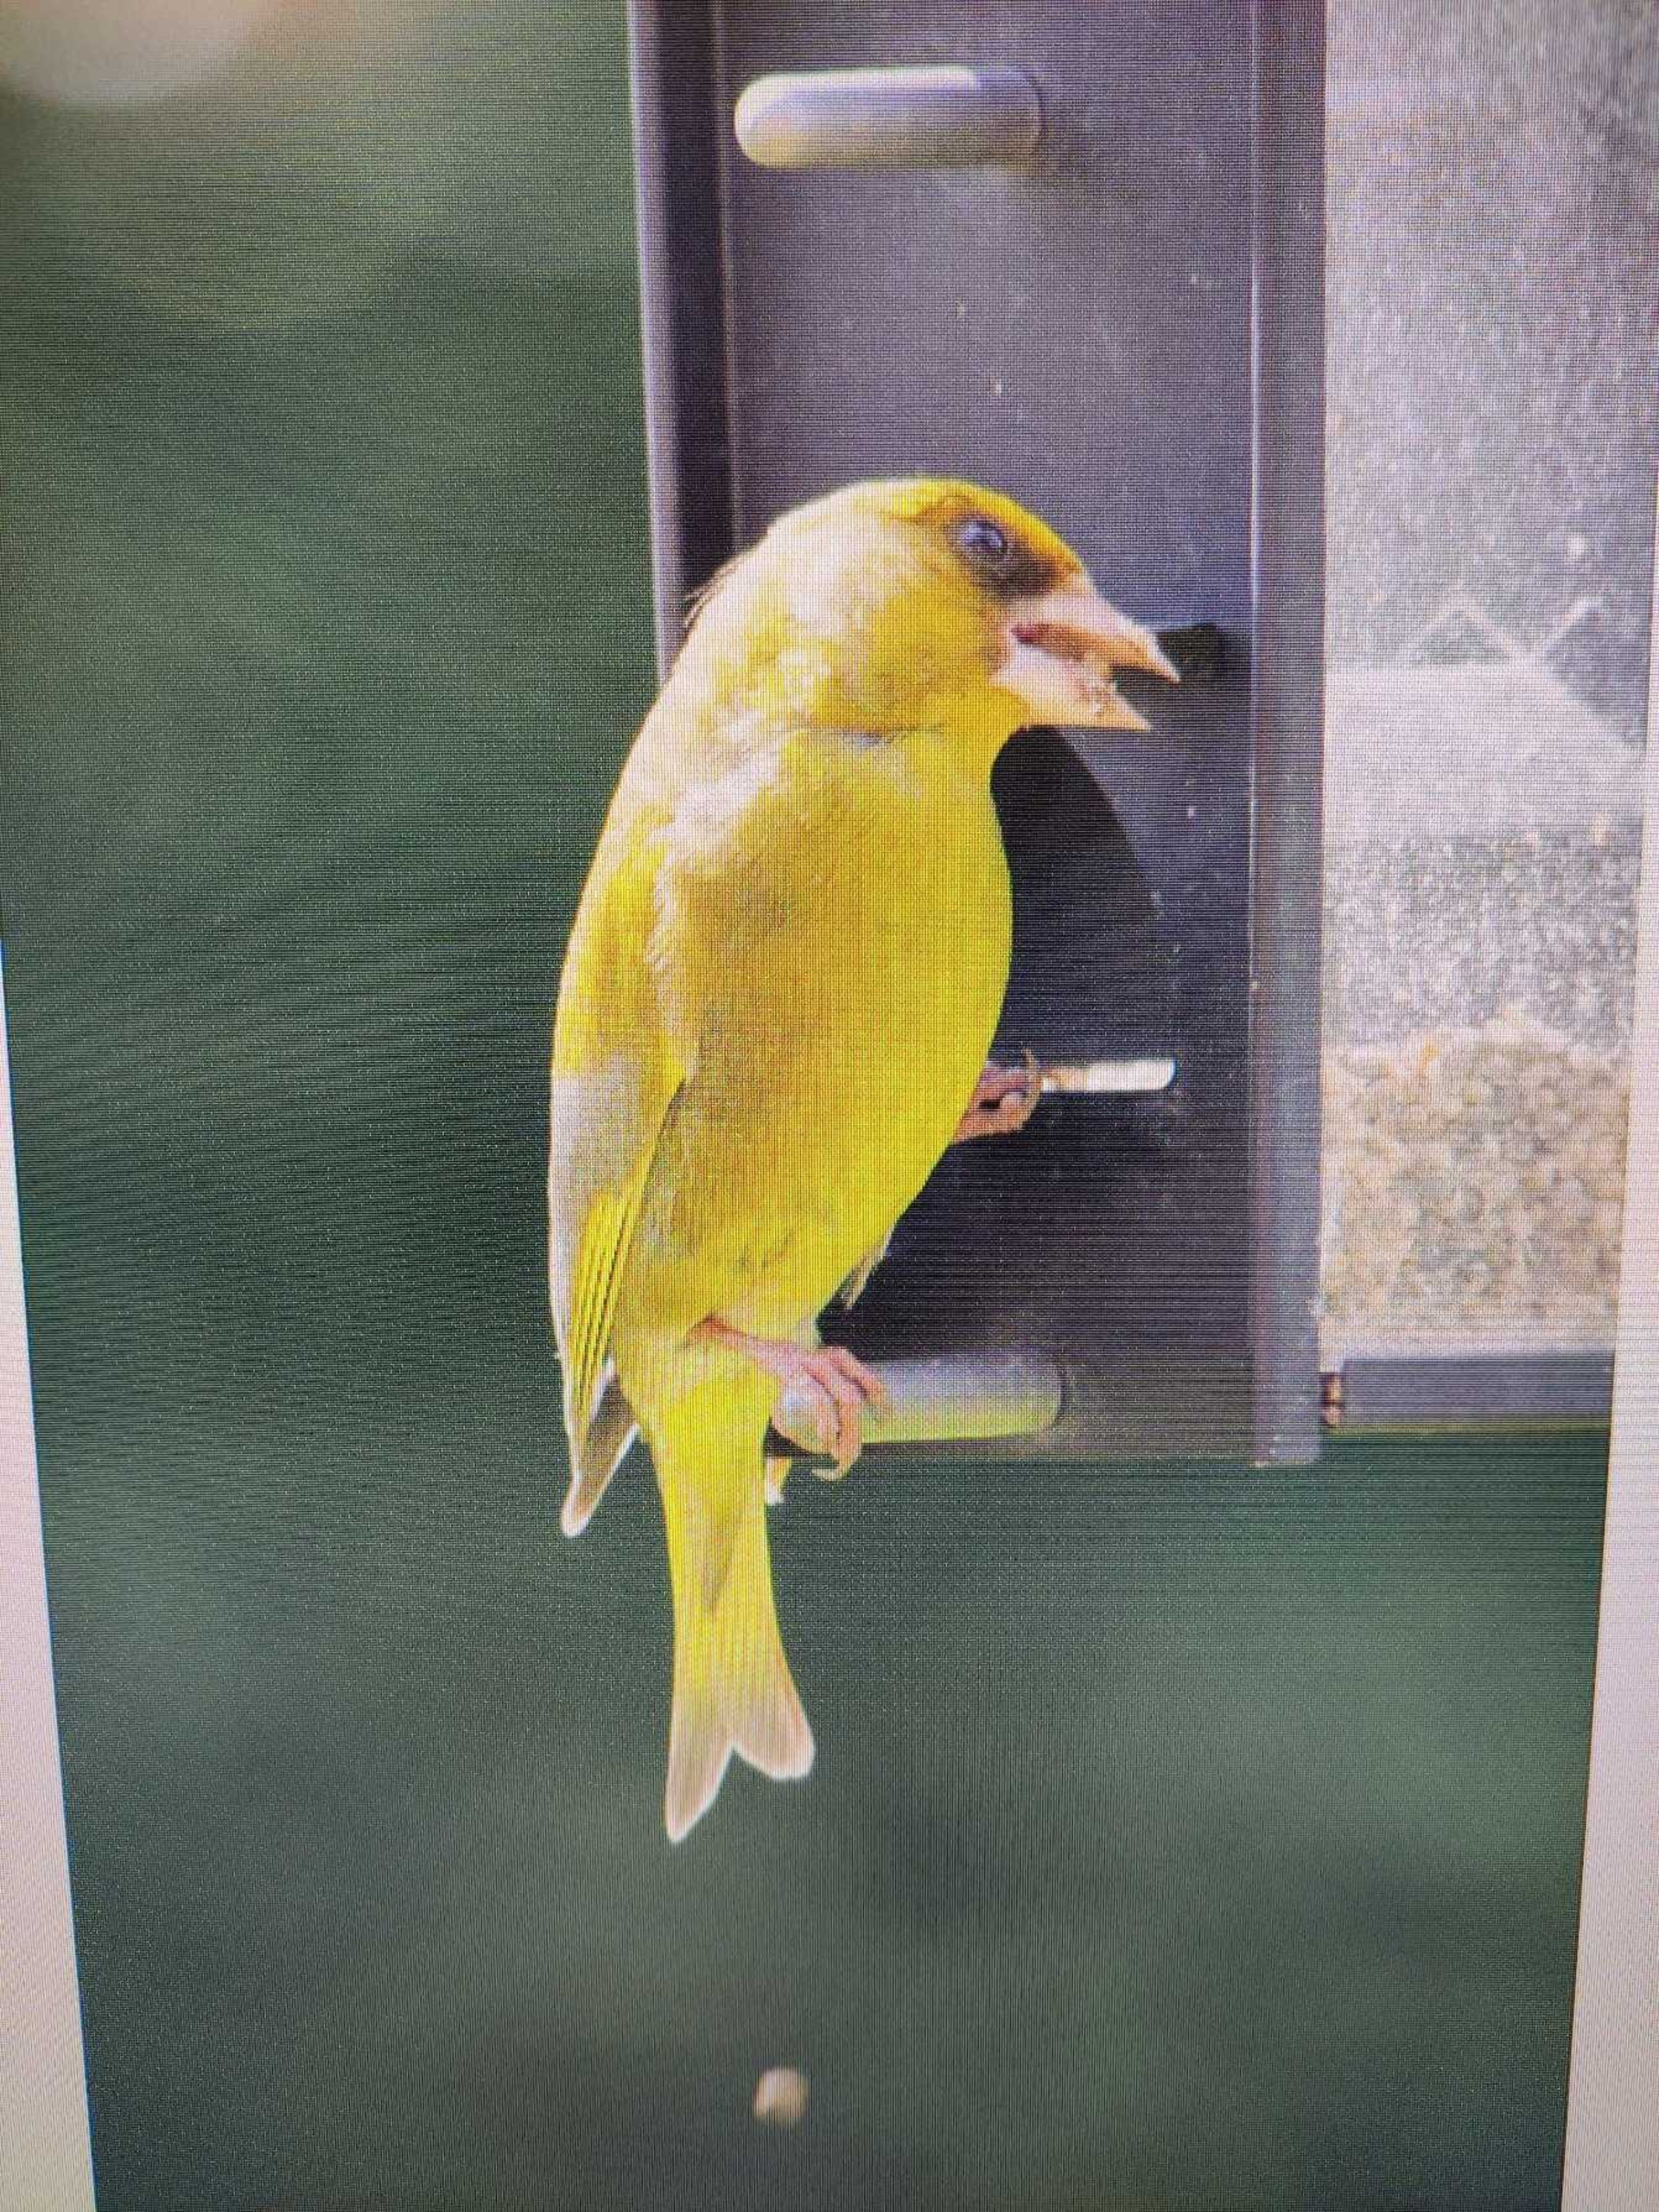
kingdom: Plantae
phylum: Tracheophyta
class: Liliopsida
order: Poales
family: Poaceae
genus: Chloris
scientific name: Chloris chloris
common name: Grønirisk
